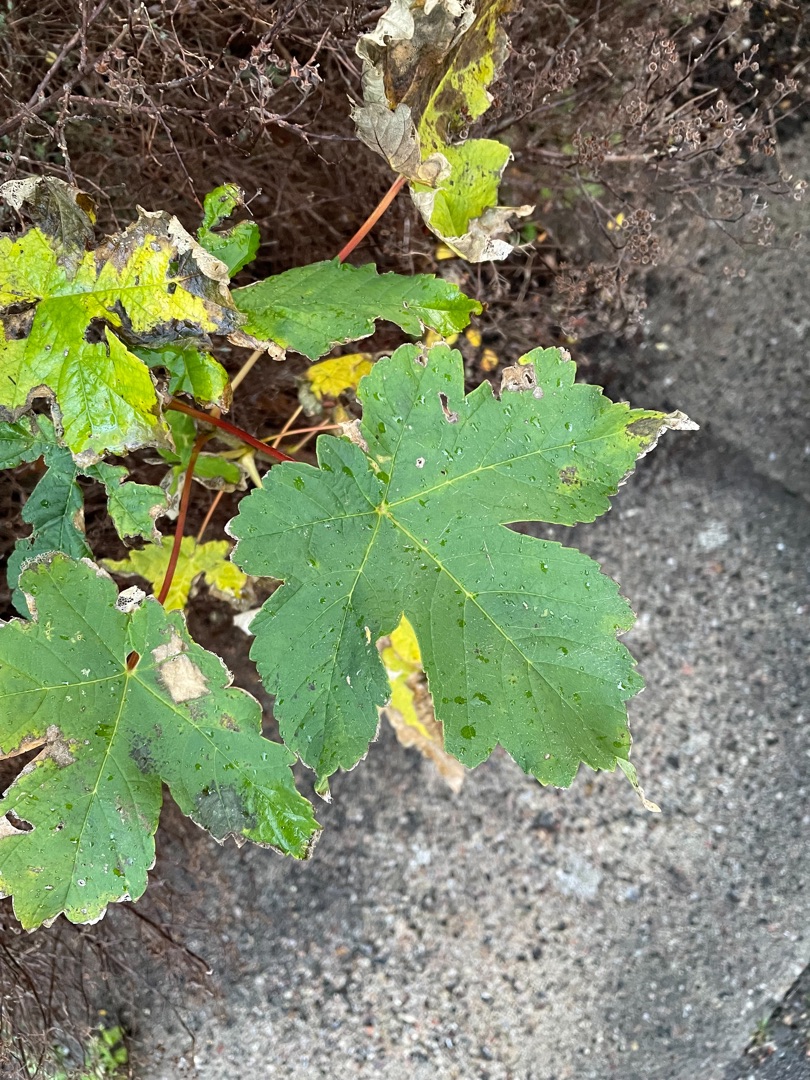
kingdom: Plantae
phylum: Tracheophyta
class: Magnoliopsida
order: Sapindales
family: Sapindaceae
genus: Acer
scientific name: Acer pseudoplatanus
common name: Ahorn
